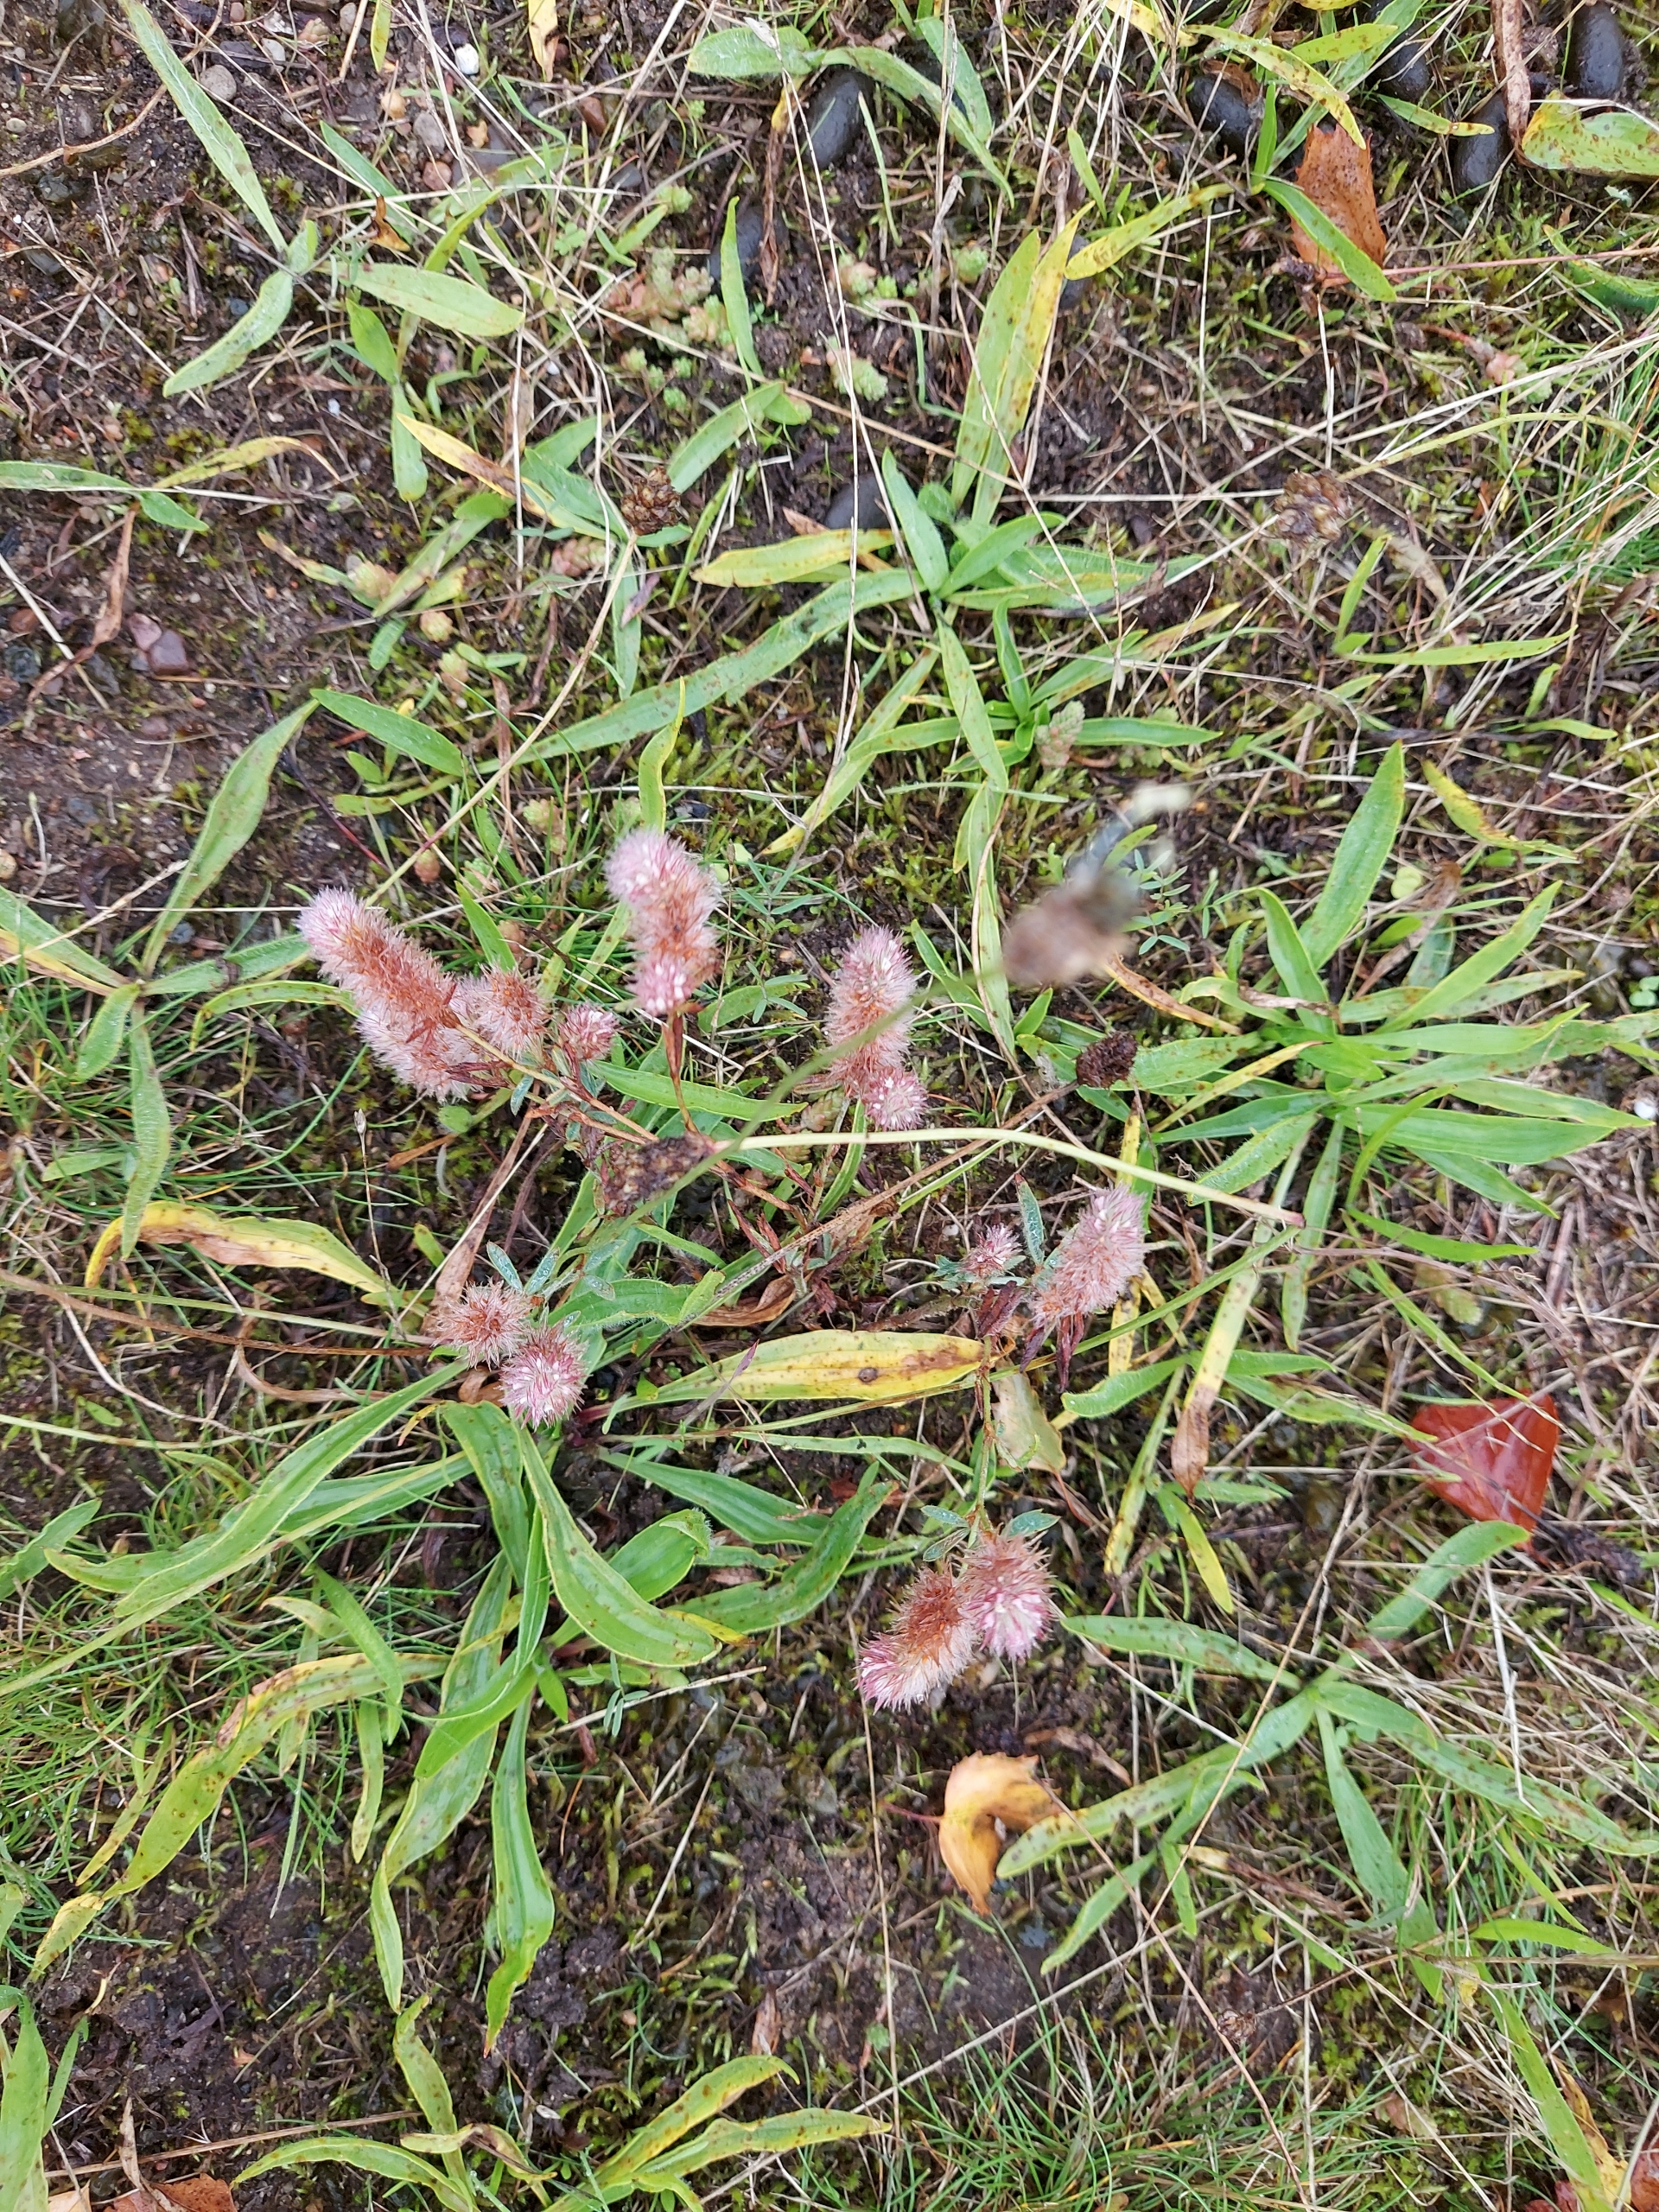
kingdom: Plantae
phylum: Tracheophyta
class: Magnoliopsida
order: Fabales
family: Fabaceae
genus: Trifolium
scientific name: Trifolium arvense
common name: Hare-kløver
